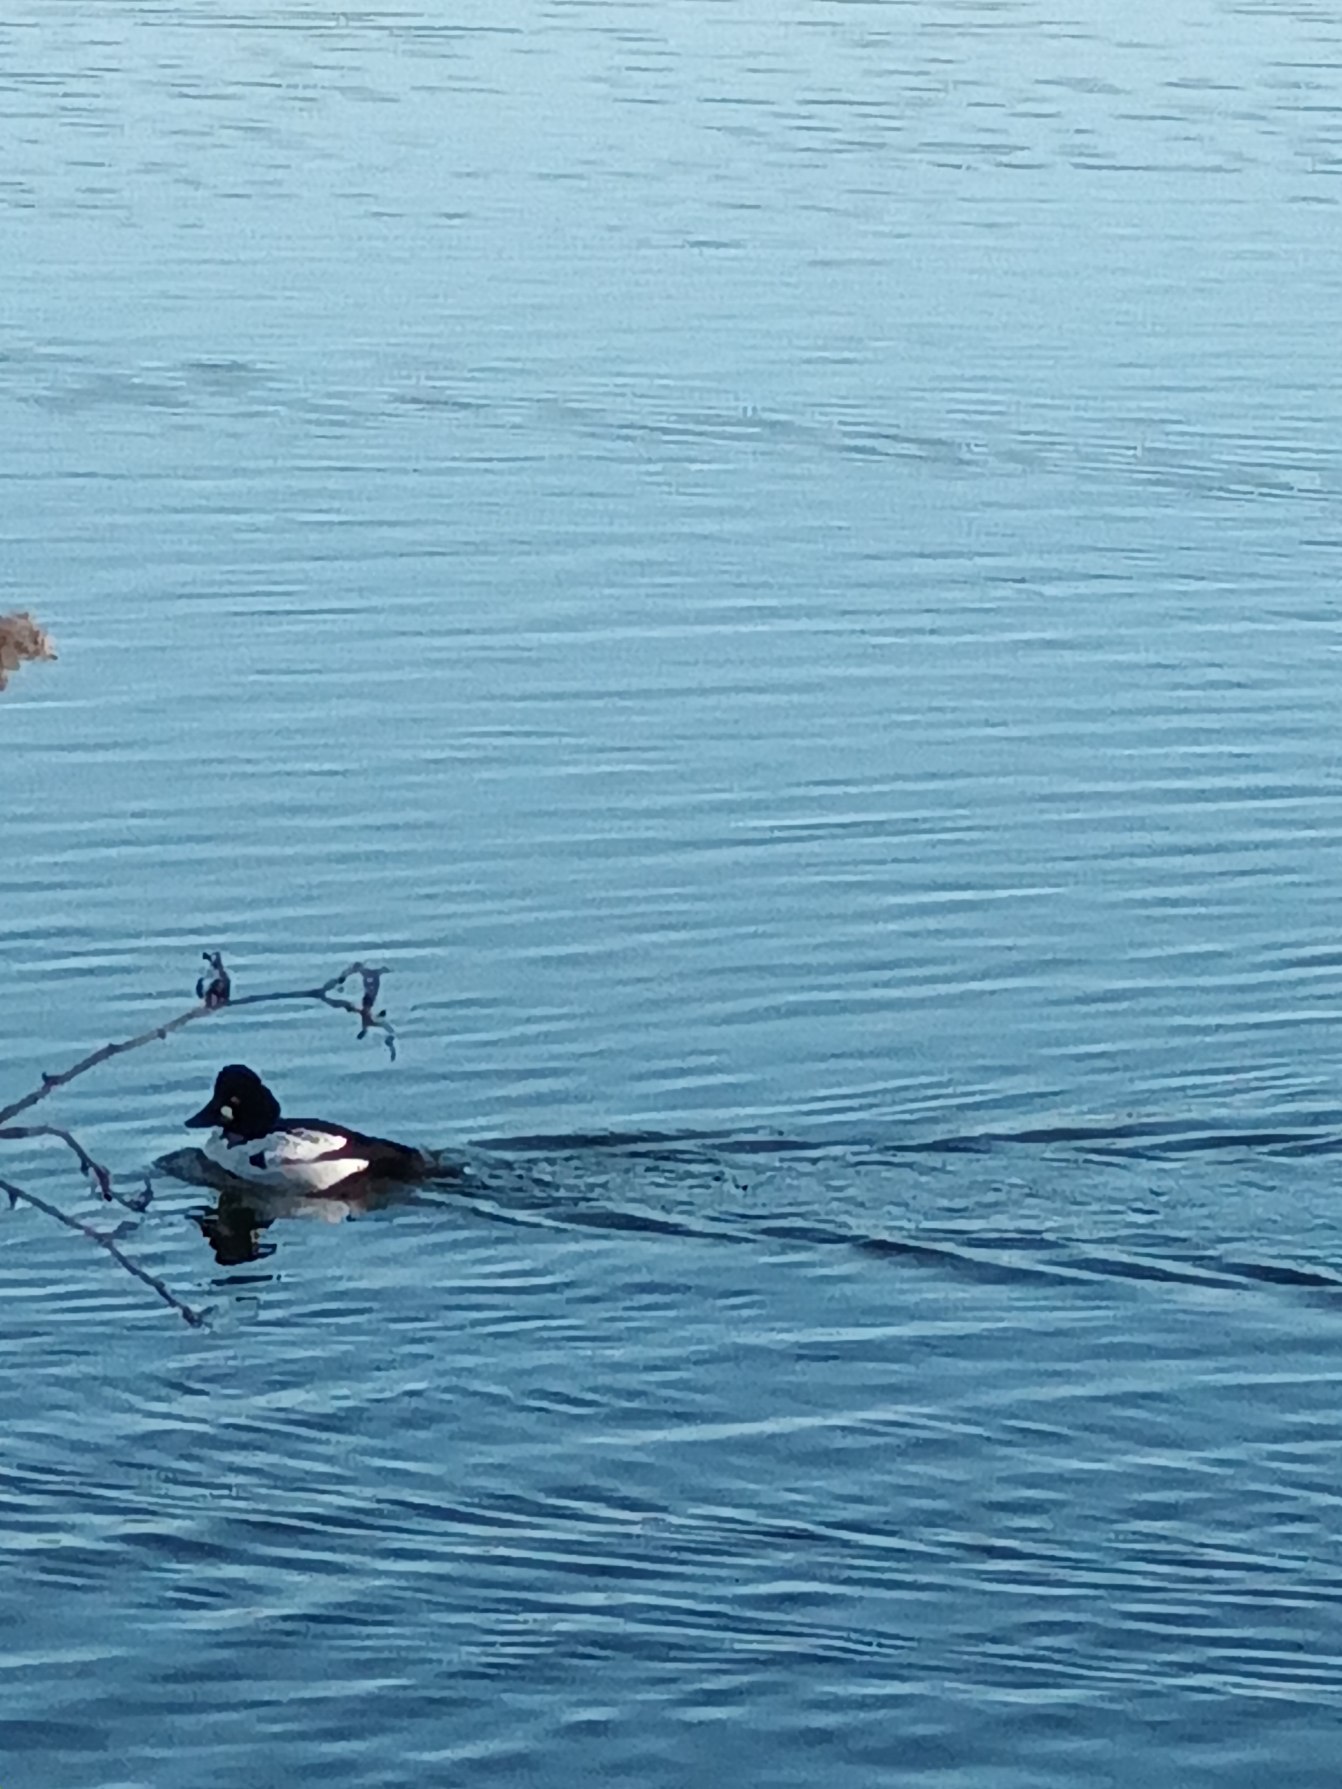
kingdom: Animalia
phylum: Chordata
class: Aves
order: Anseriformes
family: Anatidae
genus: Bucephala
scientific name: Bucephala clangula
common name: Hvinand
